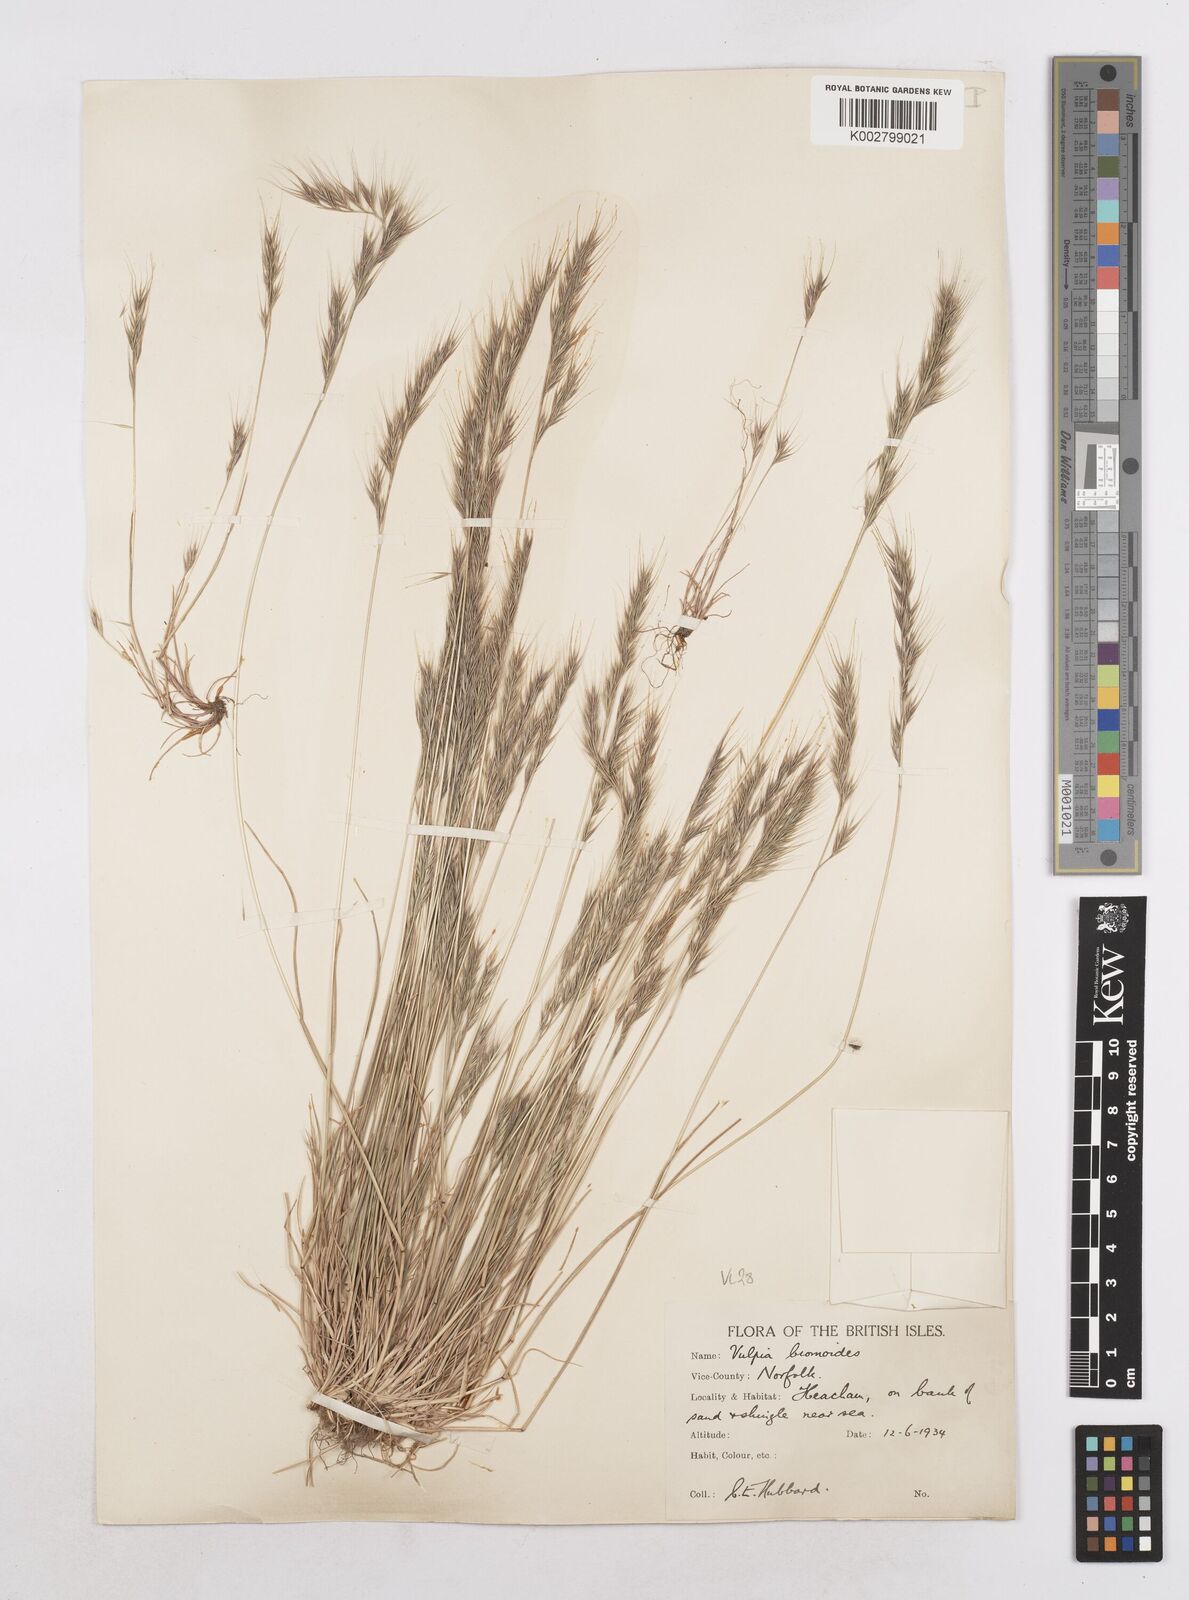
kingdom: Plantae
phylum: Tracheophyta
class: Liliopsida
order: Poales
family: Poaceae
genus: Festuca
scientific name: Festuca bromoides
